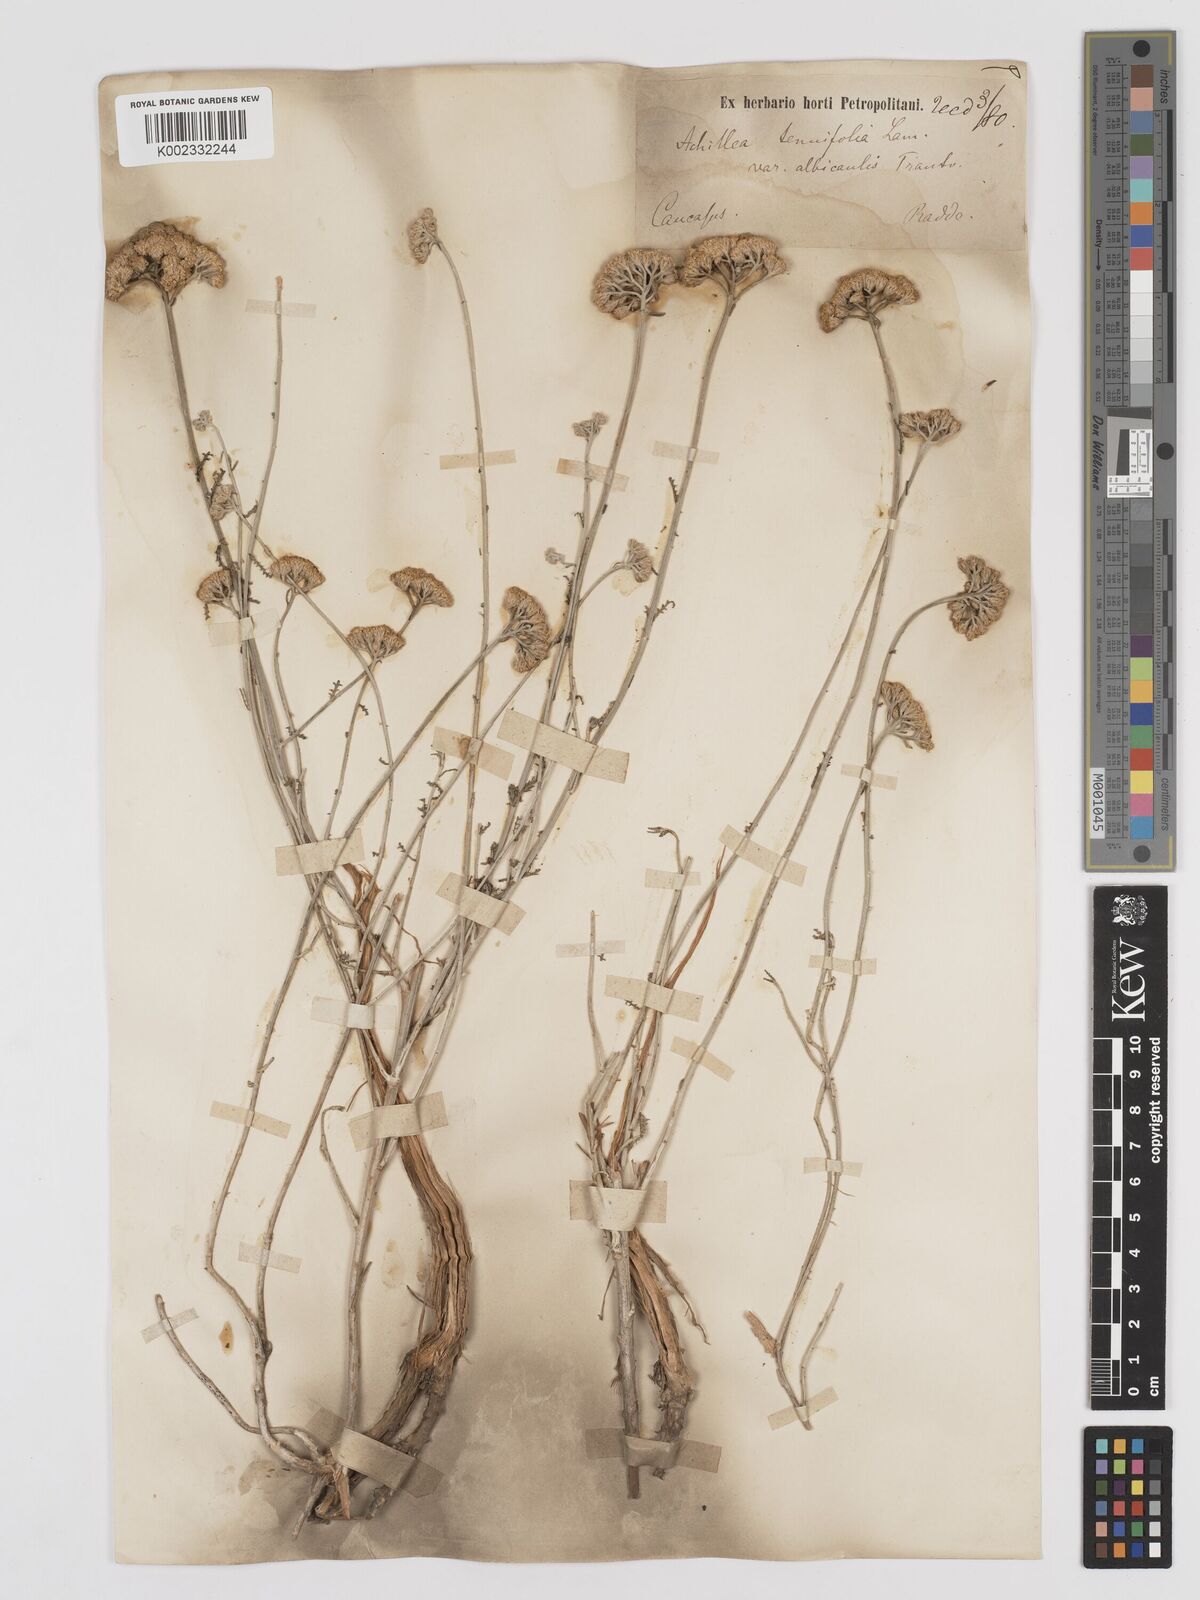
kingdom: Plantae
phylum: Tracheophyta
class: Magnoliopsida
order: Asterales
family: Asteraceae
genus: Achillea
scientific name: Achillea tenuifolia
